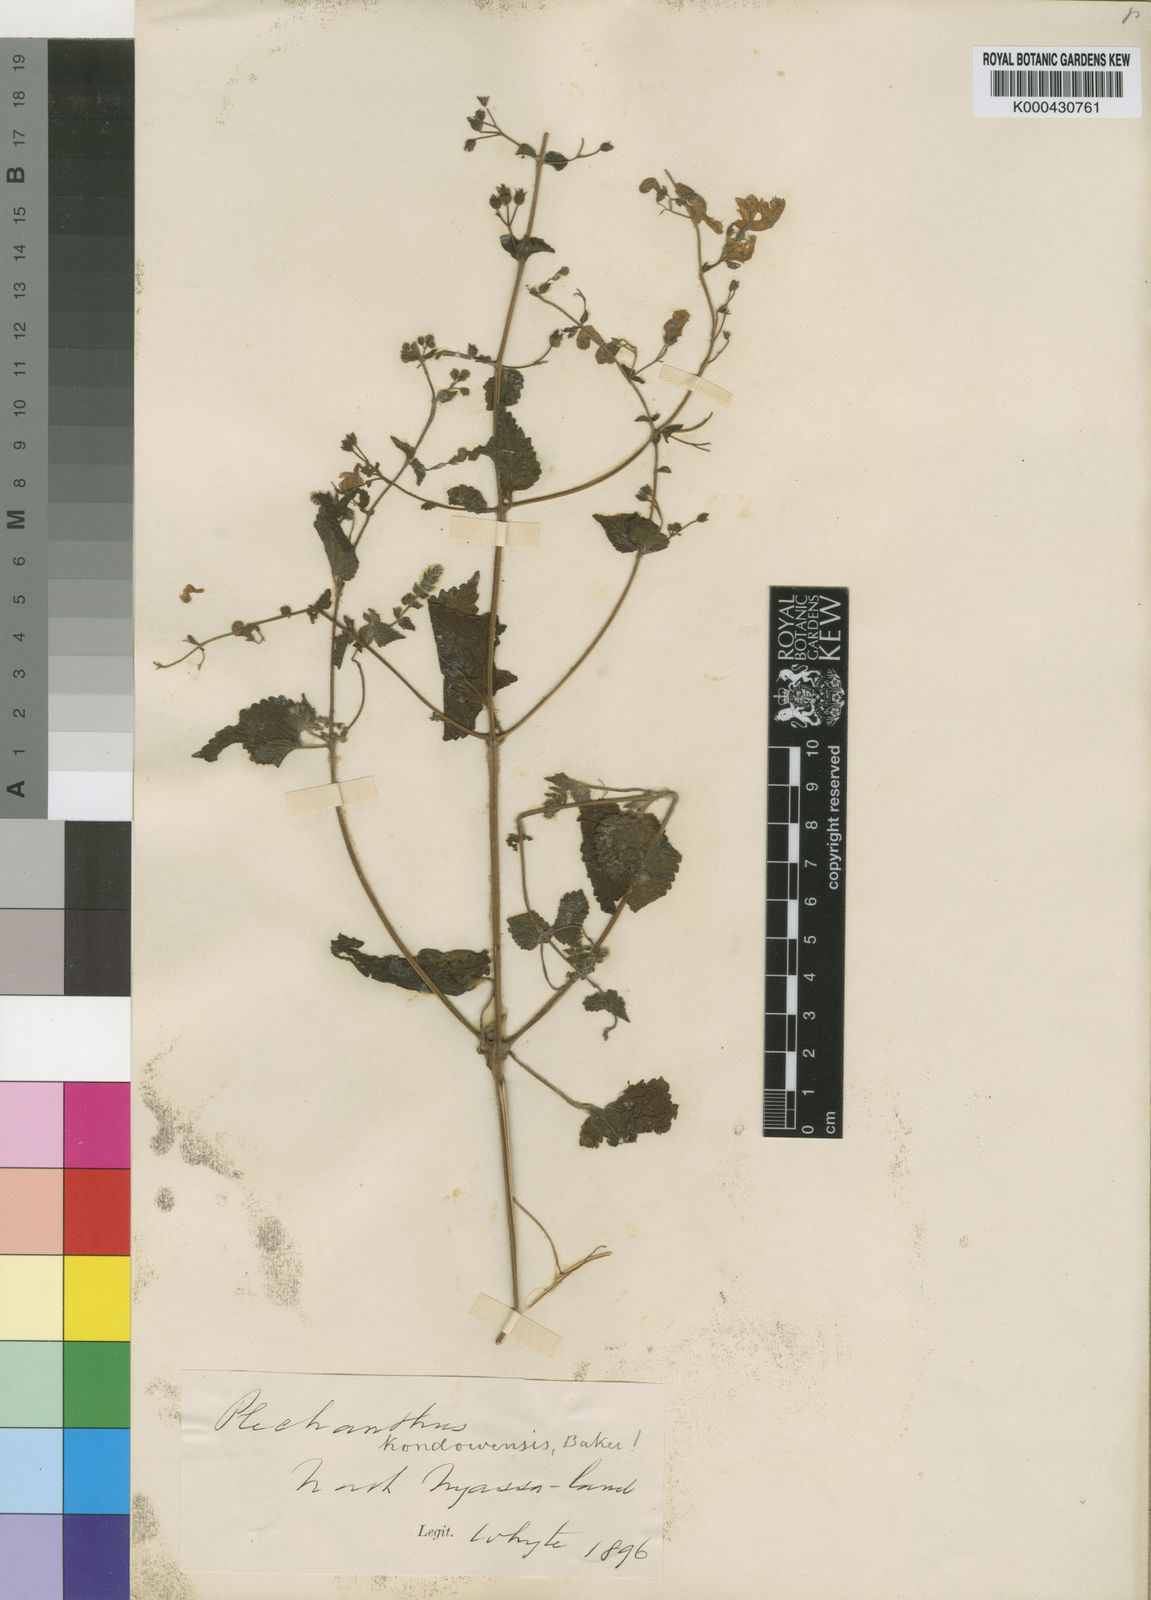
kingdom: Plantae
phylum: Tracheophyta
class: Magnoliopsida
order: Lamiales
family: Lamiaceae
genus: Equilabium
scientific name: Equilabium laxiflorum
